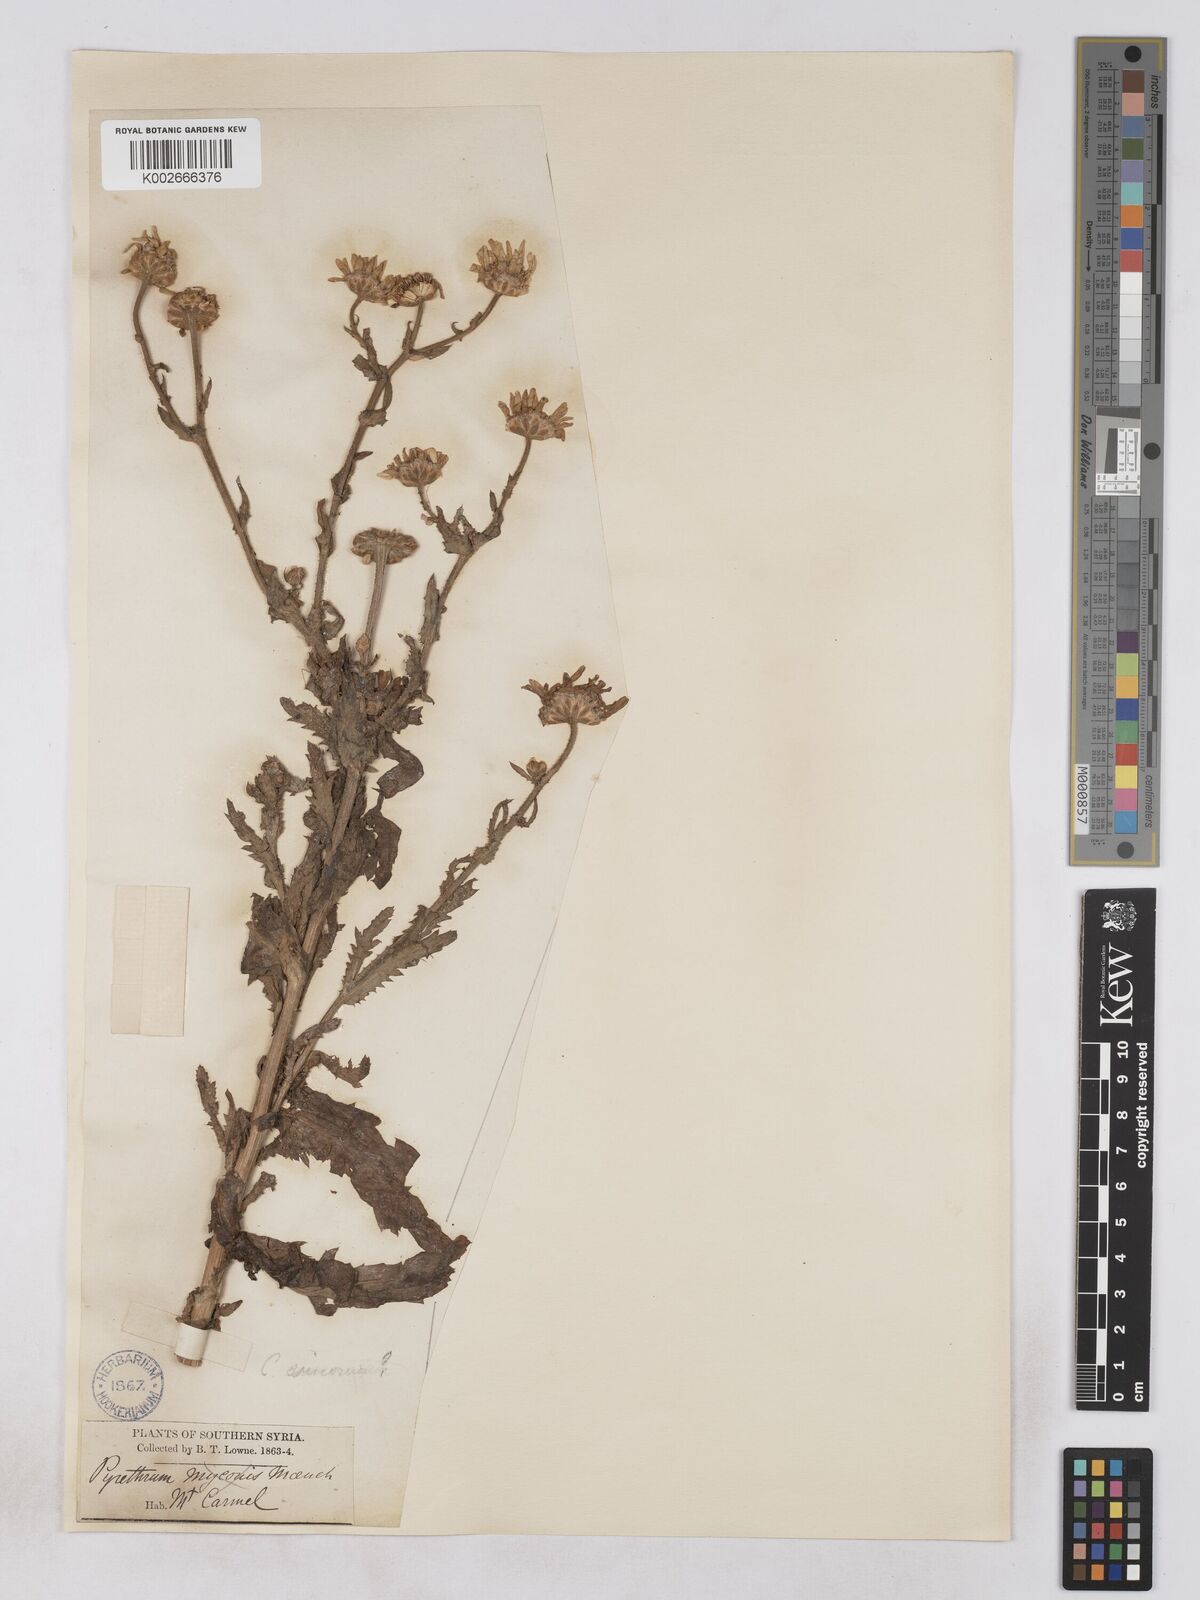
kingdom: Plantae
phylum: Tracheophyta
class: Magnoliopsida
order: Asterales
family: Asteraceae
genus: Heteranthemis
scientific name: Heteranthemis
